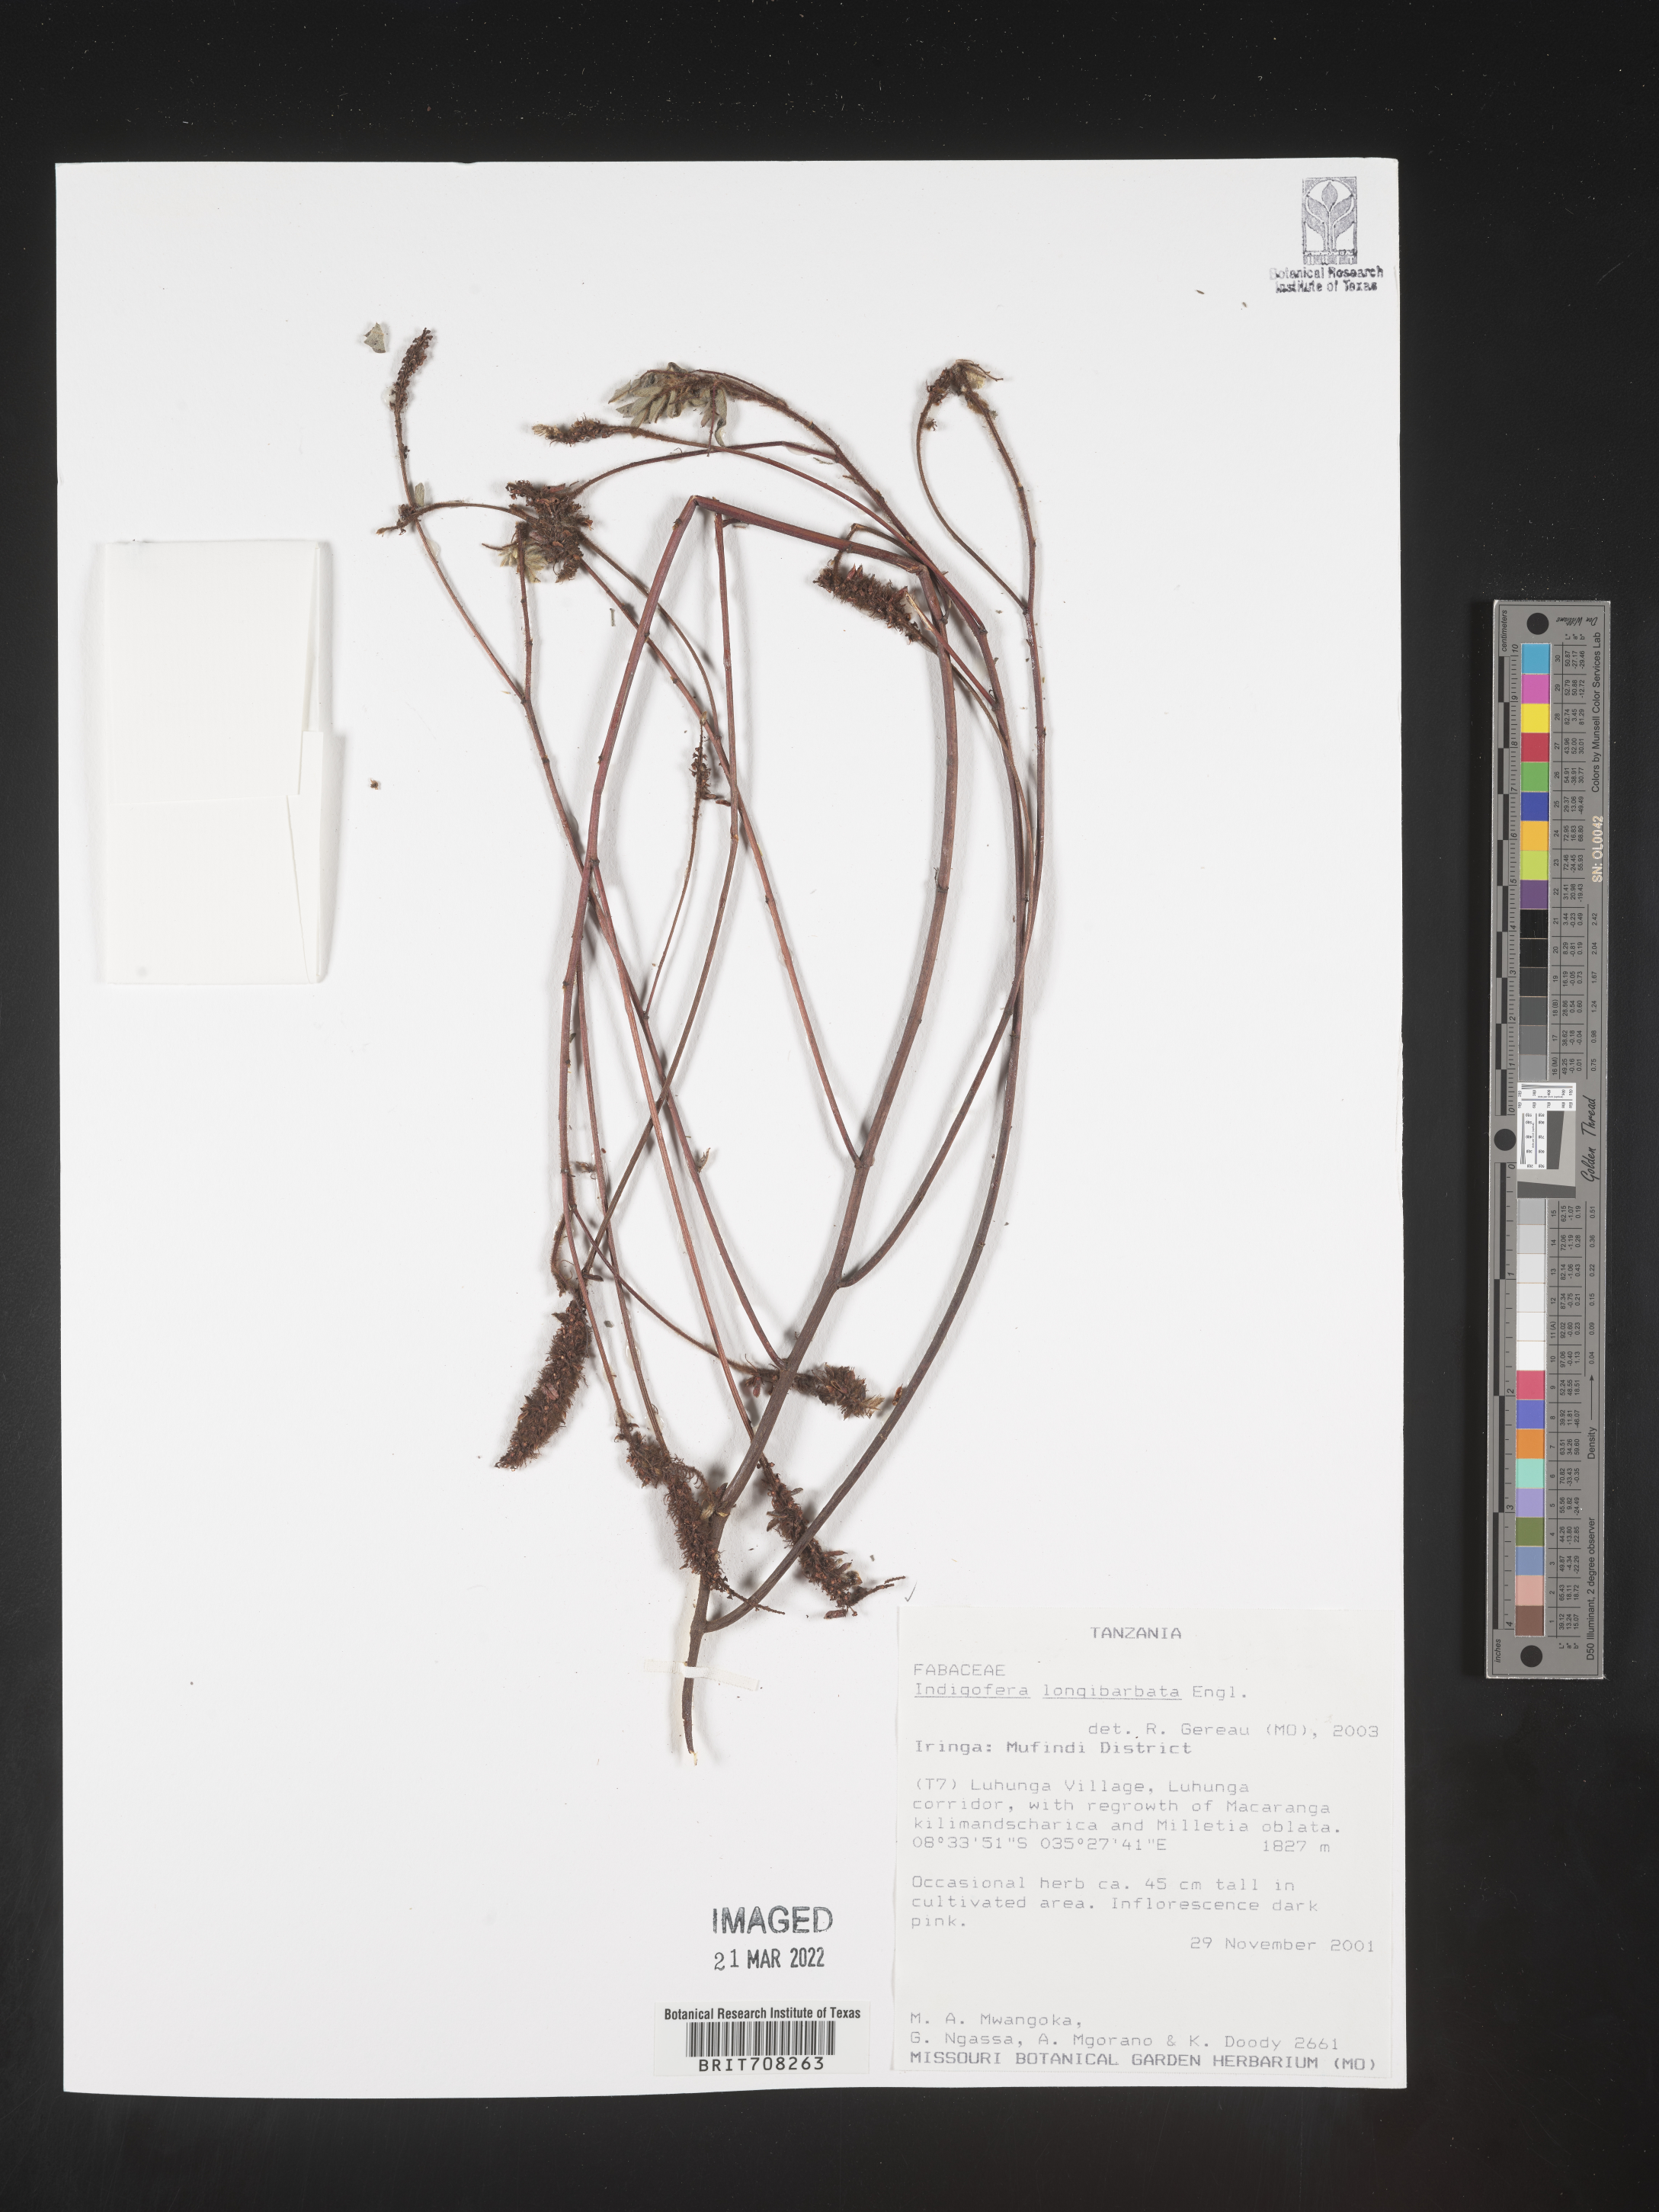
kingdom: Plantae
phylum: Tracheophyta
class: Magnoliopsida
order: Fabales
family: Fabaceae
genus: Indigofera
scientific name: Indigofera
